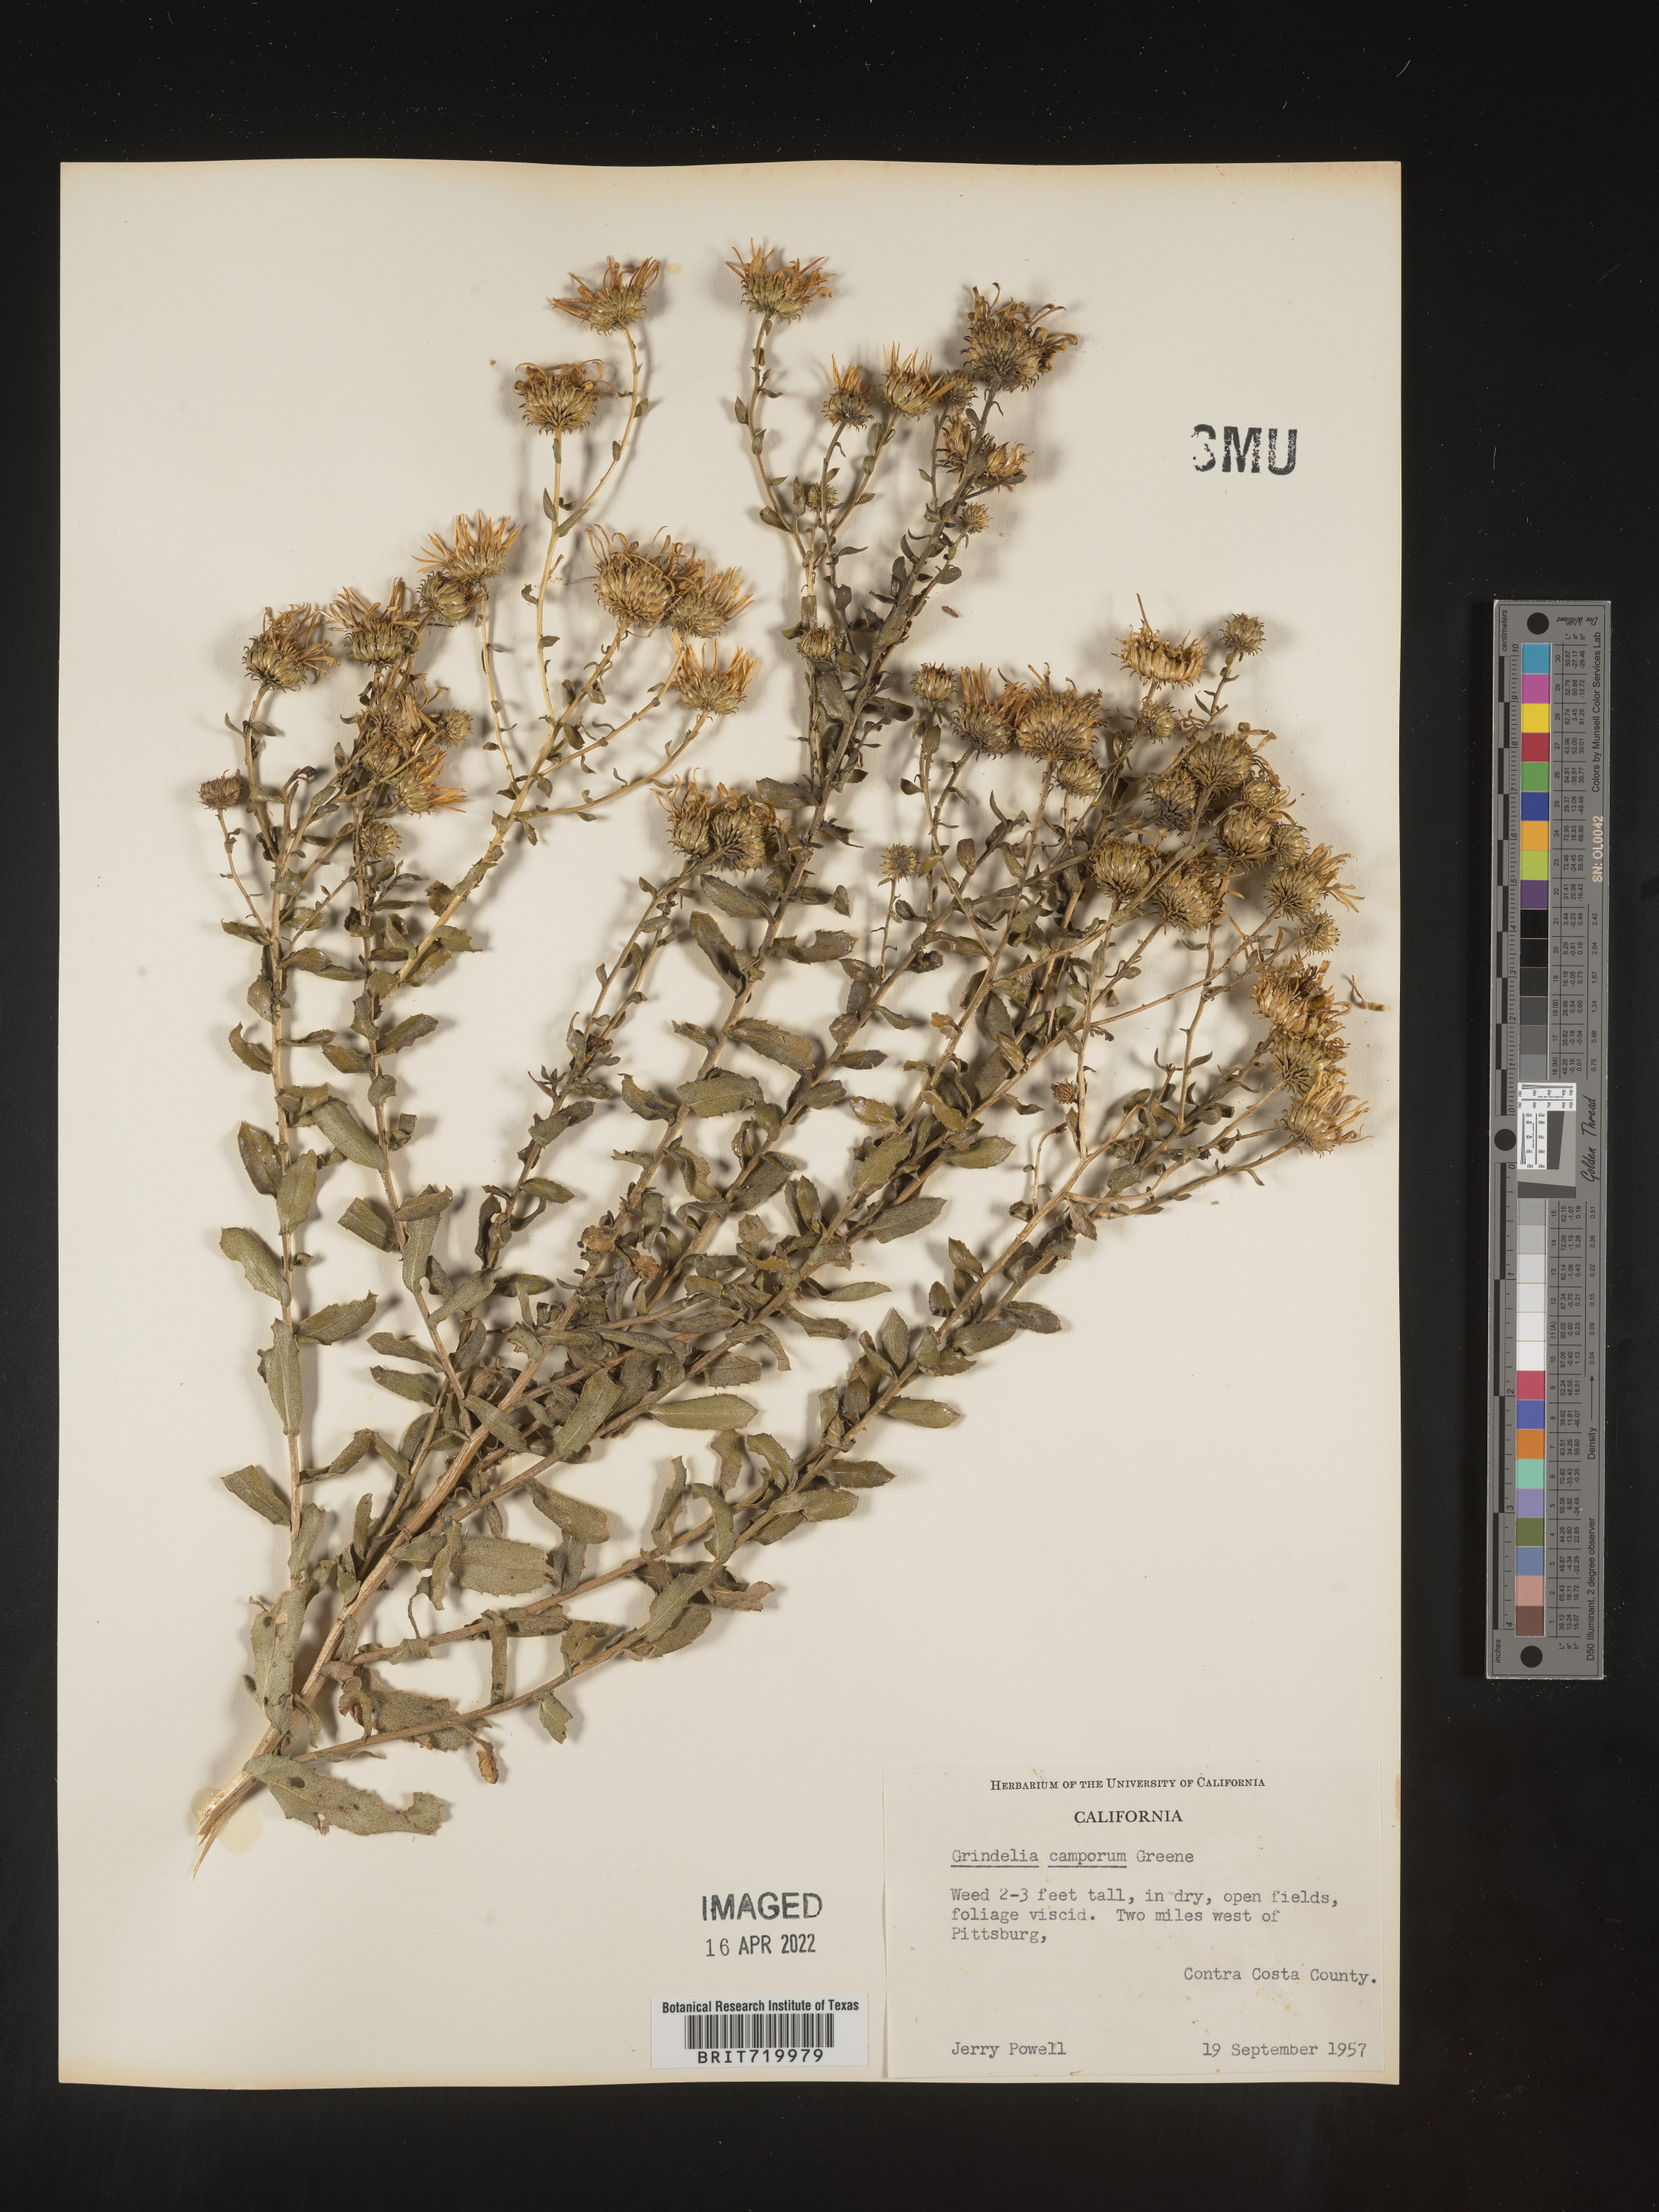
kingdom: Plantae
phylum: Tracheophyta
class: Magnoliopsida
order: Asterales
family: Asteraceae
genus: Grindelia
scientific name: Grindelia hirsutula
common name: Hairy gumweed
